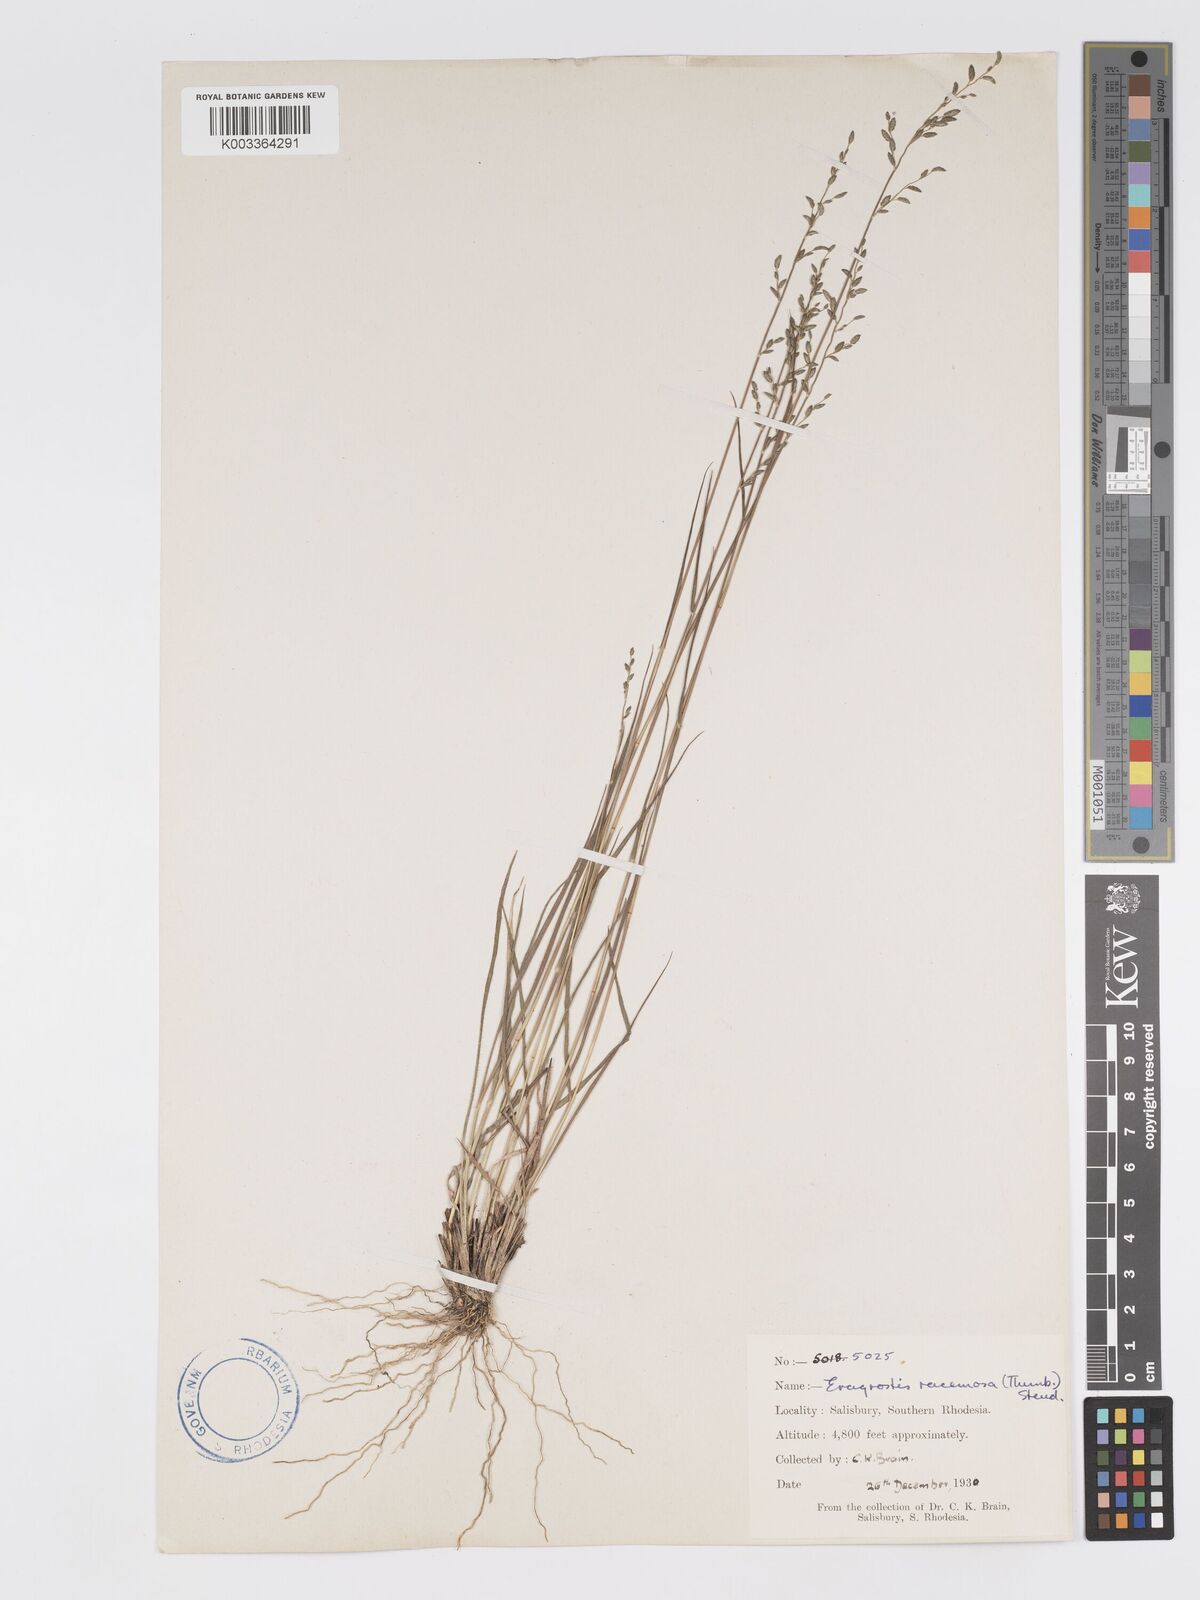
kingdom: Plantae
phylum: Tracheophyta
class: Liliopsida
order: Poales
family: Poaceae
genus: Eragrostis
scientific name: Eragrostis racemosa
